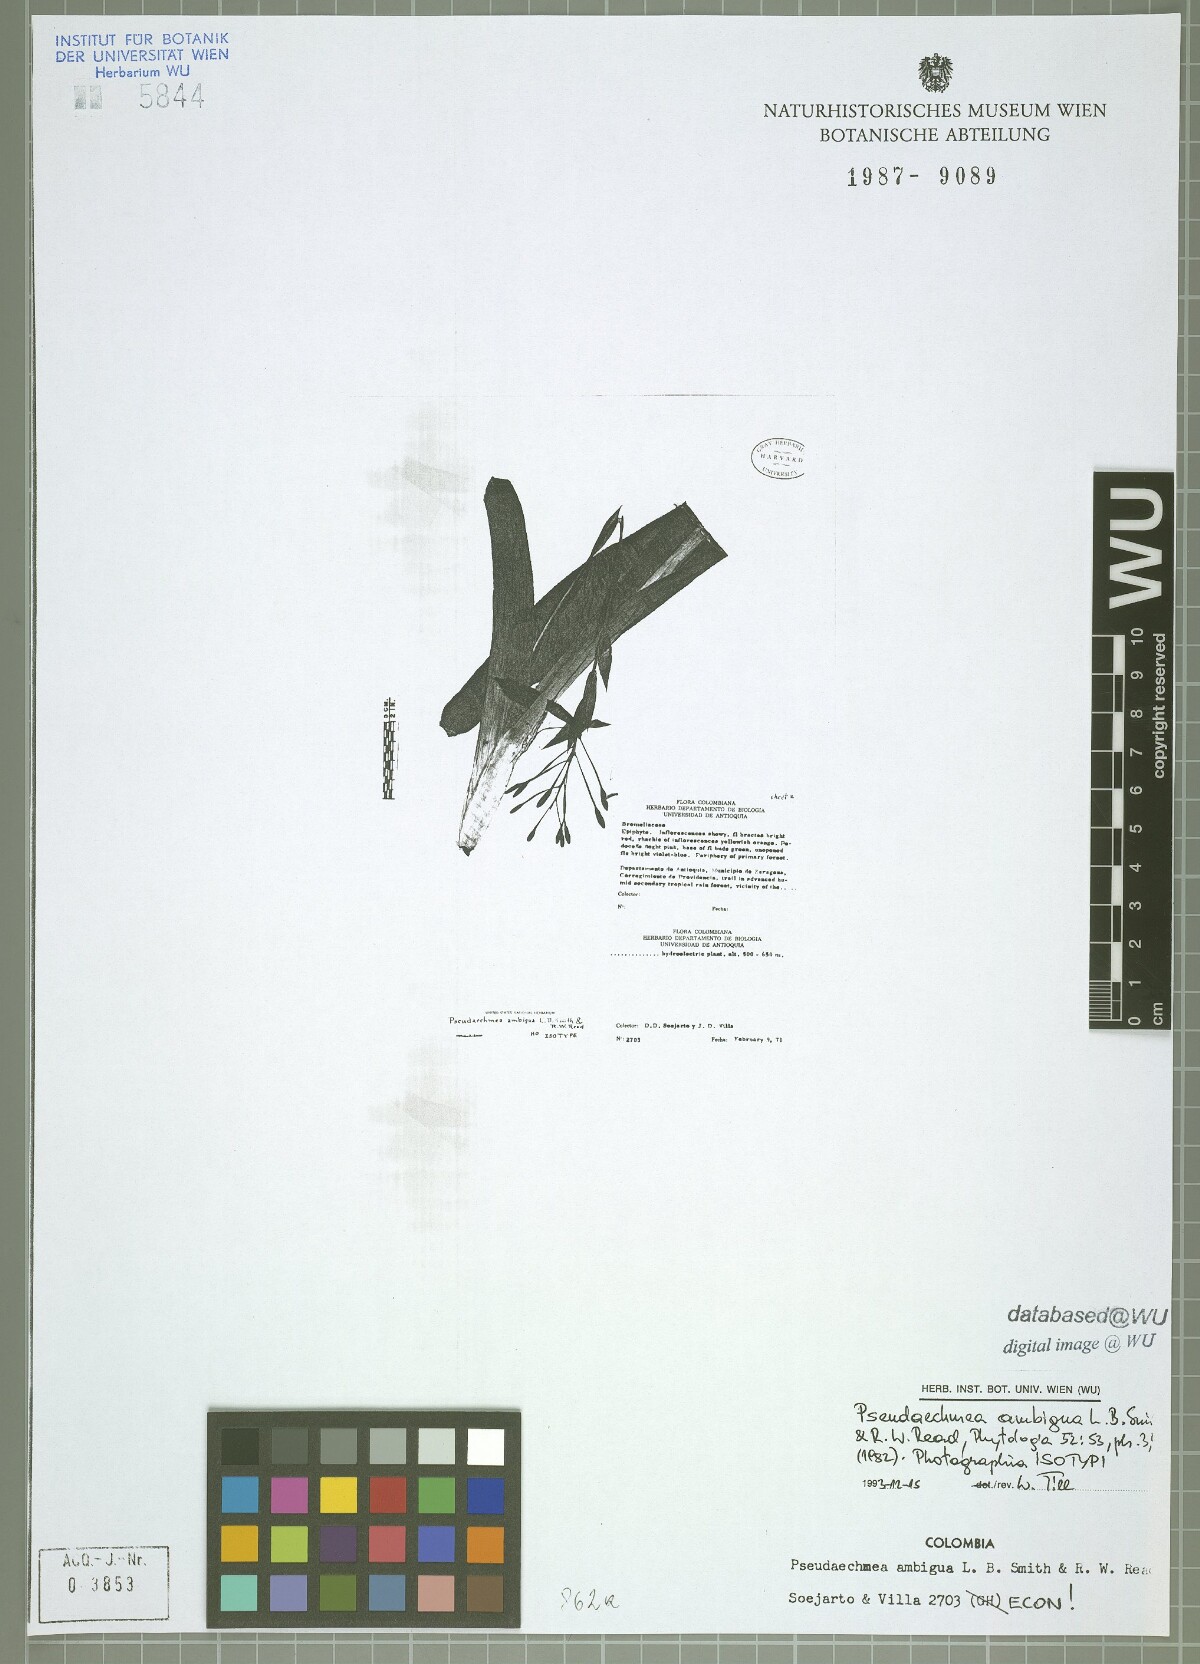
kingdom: Plantae
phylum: Tracheophyta
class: Liliopsida
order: Poales
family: Bromeliaceae
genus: Billbergia
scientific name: Billbergia ambigua
